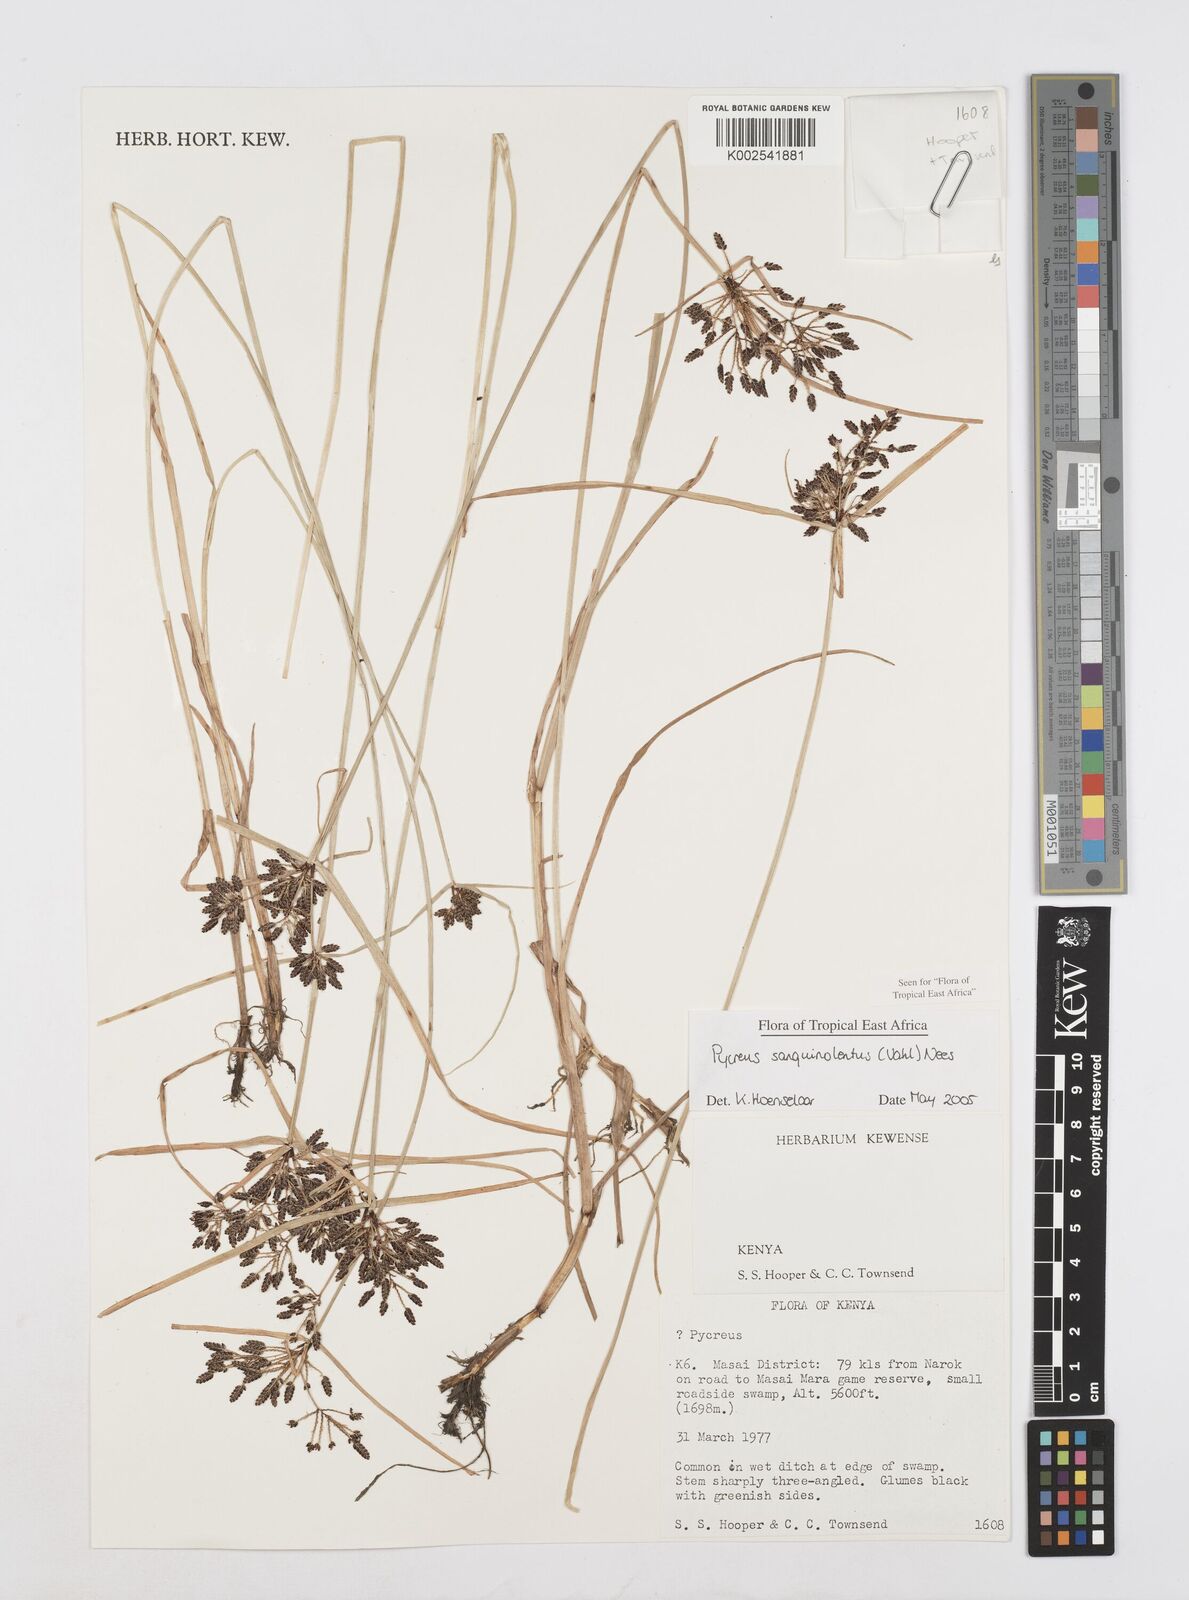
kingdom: Plantae
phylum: Tracheophyta
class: Liliopsida
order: Poales
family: Cyperaceae
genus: Cyperus
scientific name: Cyperus sanguinolentus
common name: Purpleglume flatsedge
